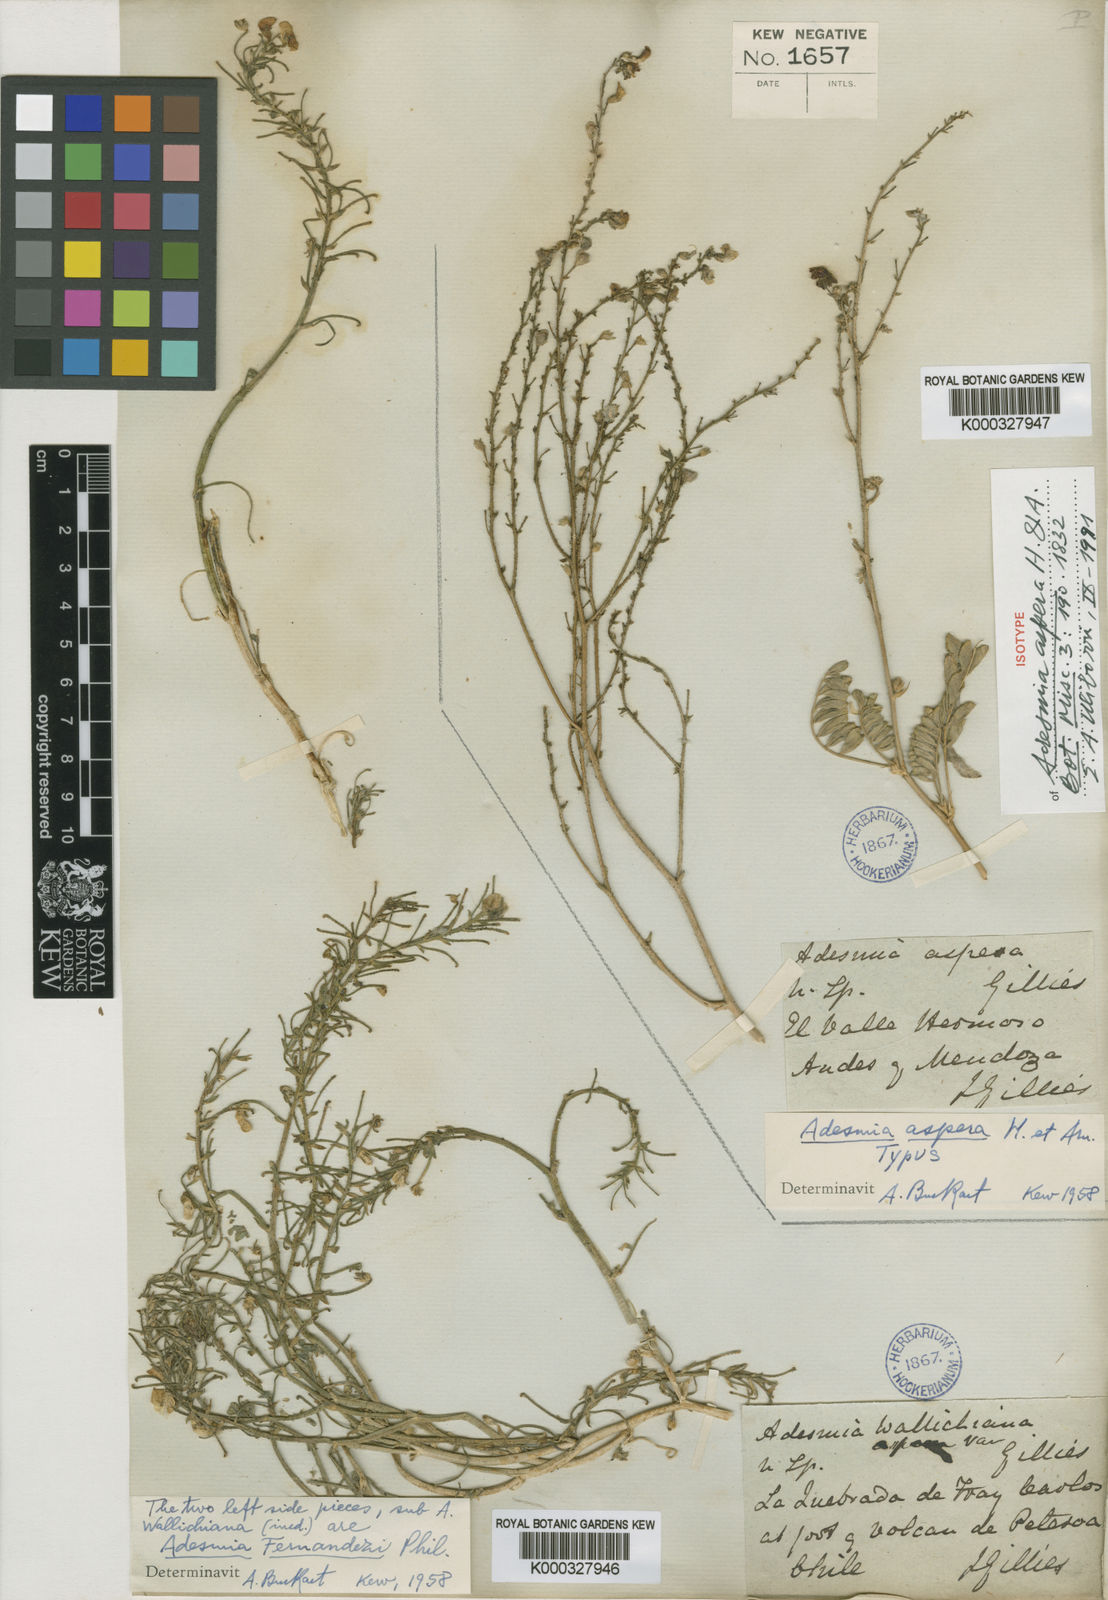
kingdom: Plantae
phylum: Tracheophyta
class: Magnoliopsida
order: Fabales
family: Fabaceae
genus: Adesmia
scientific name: Adesmia aspera
